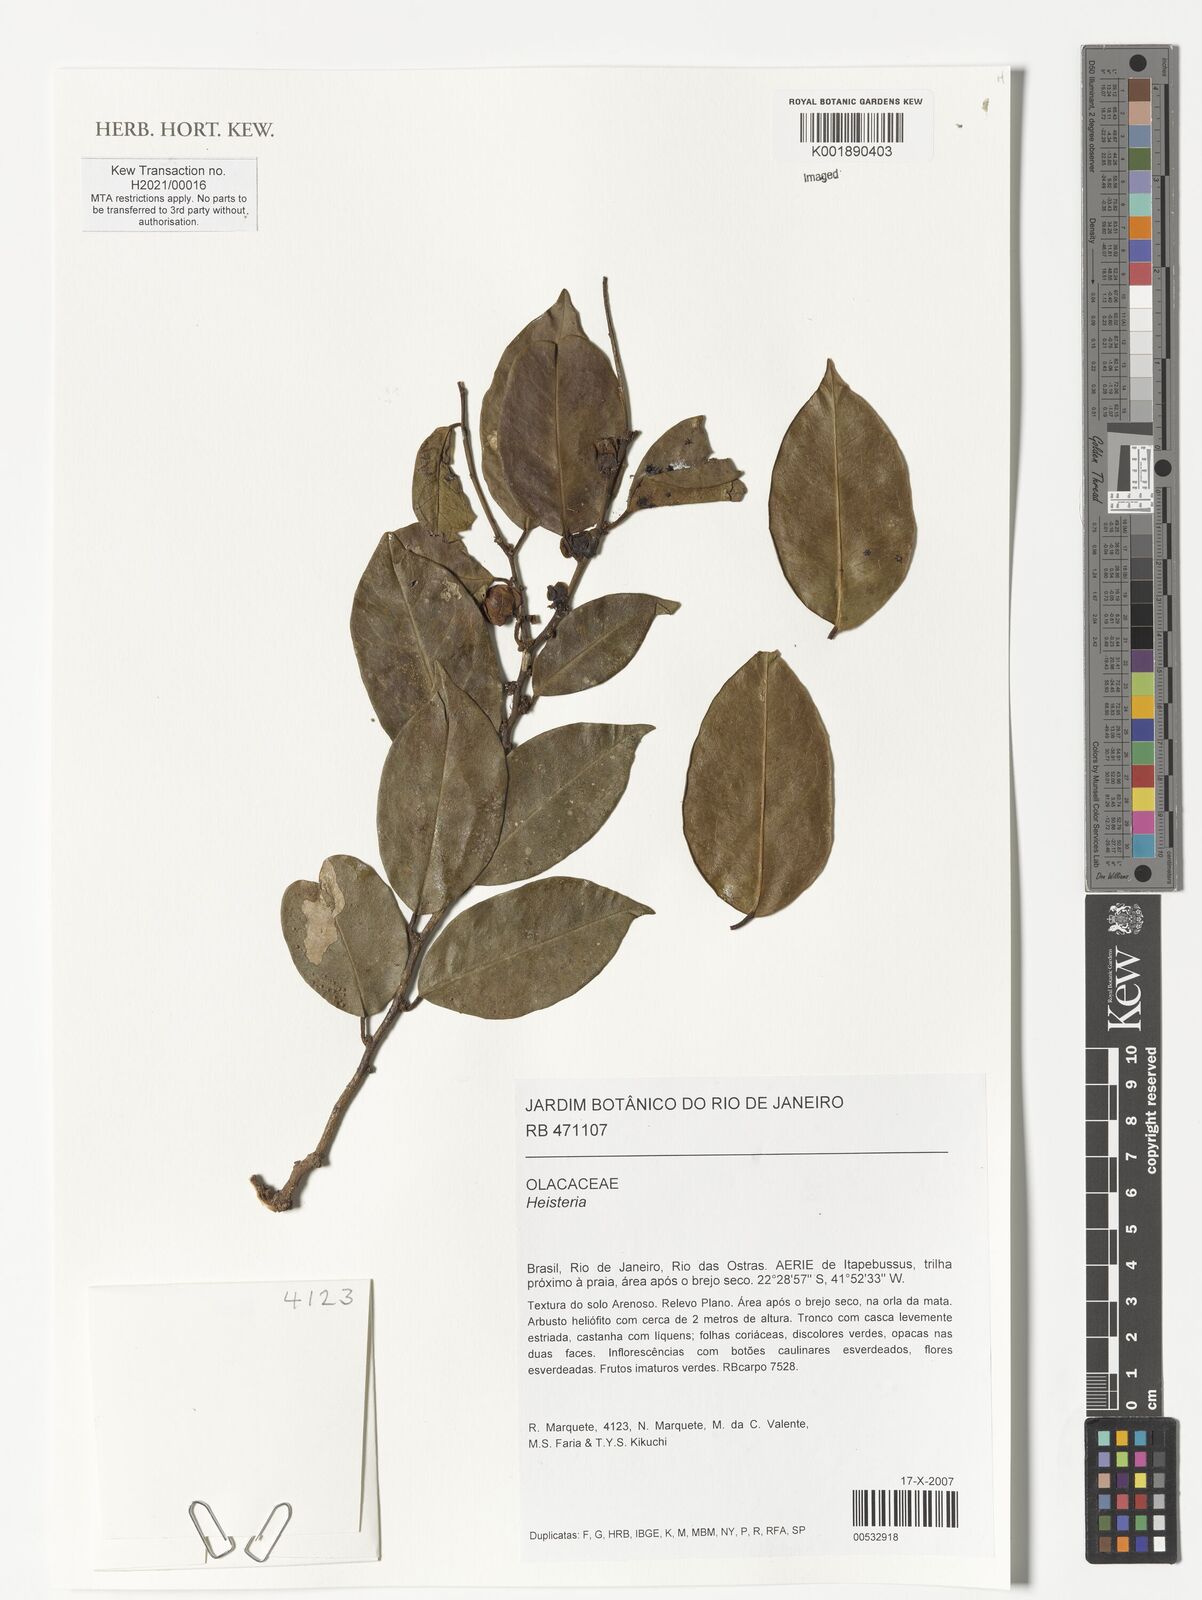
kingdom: Plantae
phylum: Tracheophyta
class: Magnoliopsida
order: Santalales
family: Erythropalaceae
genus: Heisteria
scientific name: Heisteria
